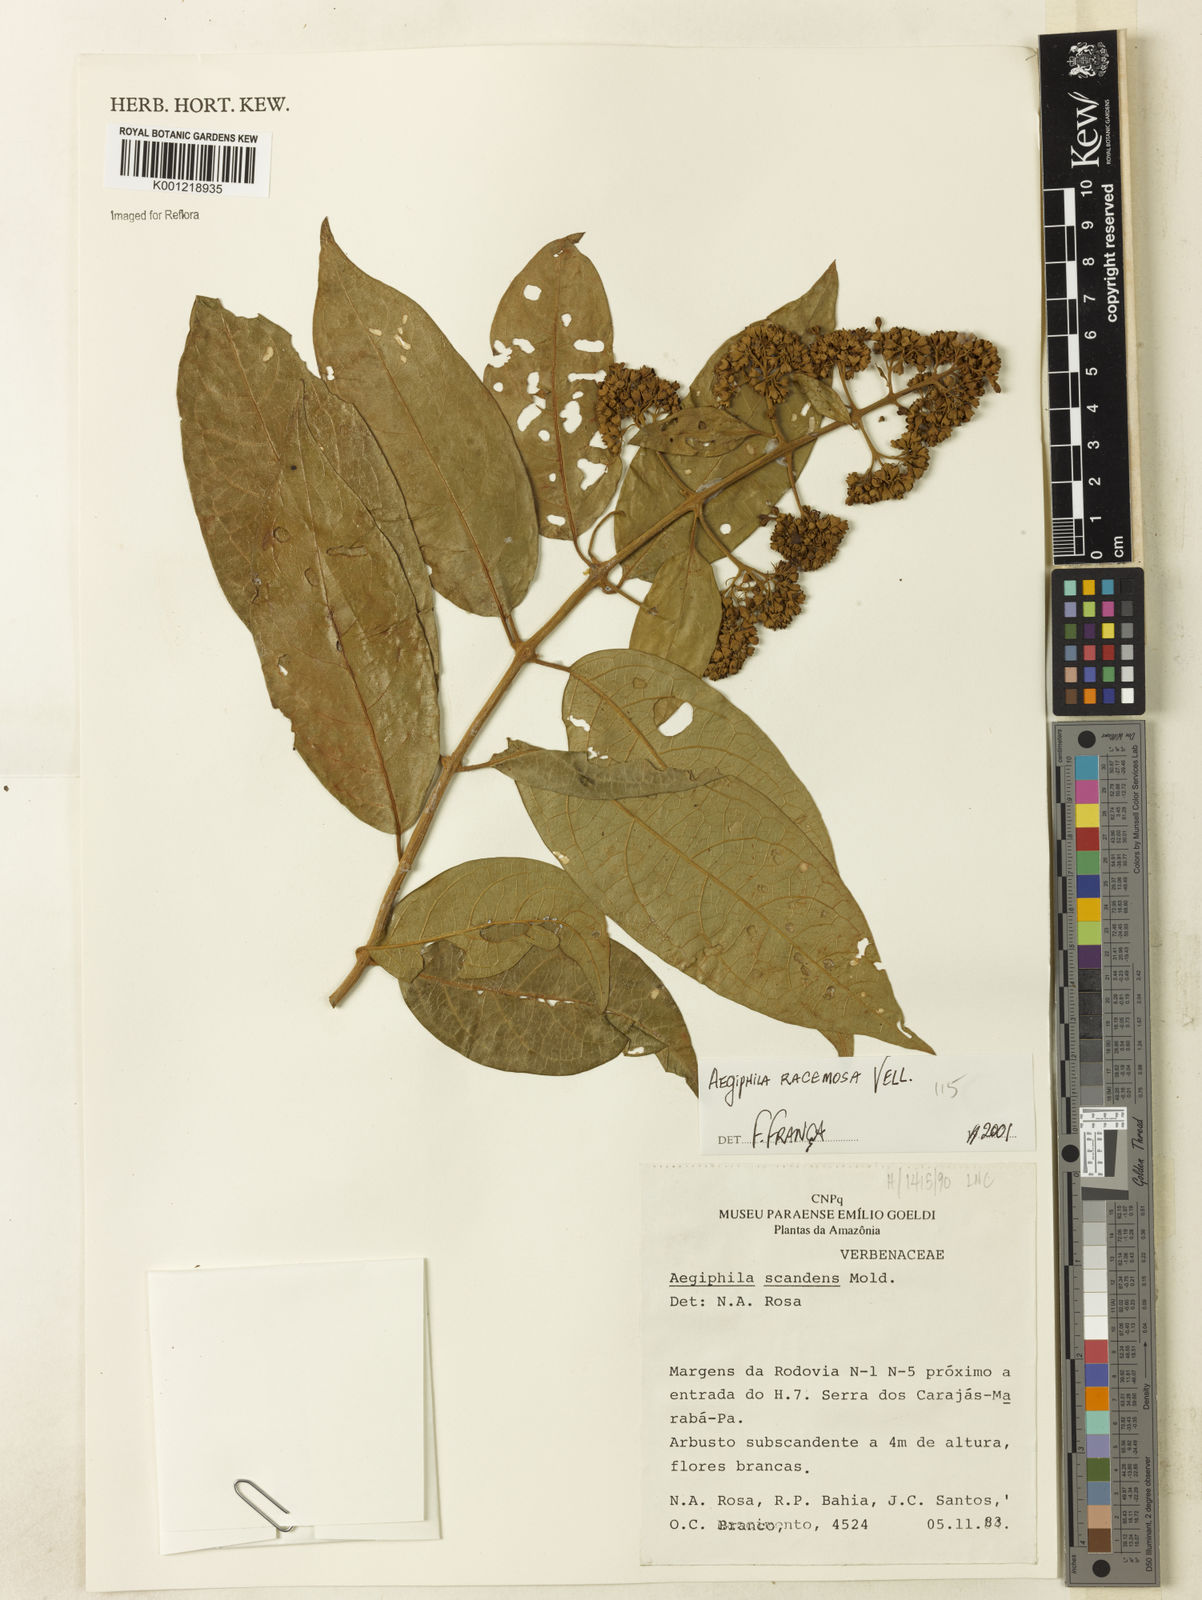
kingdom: Plantae
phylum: Tracheophyta
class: Magnoliopsida
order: Lamiales
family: Lamiaceae
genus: Aegiphila
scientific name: Aegiphila racemosa
